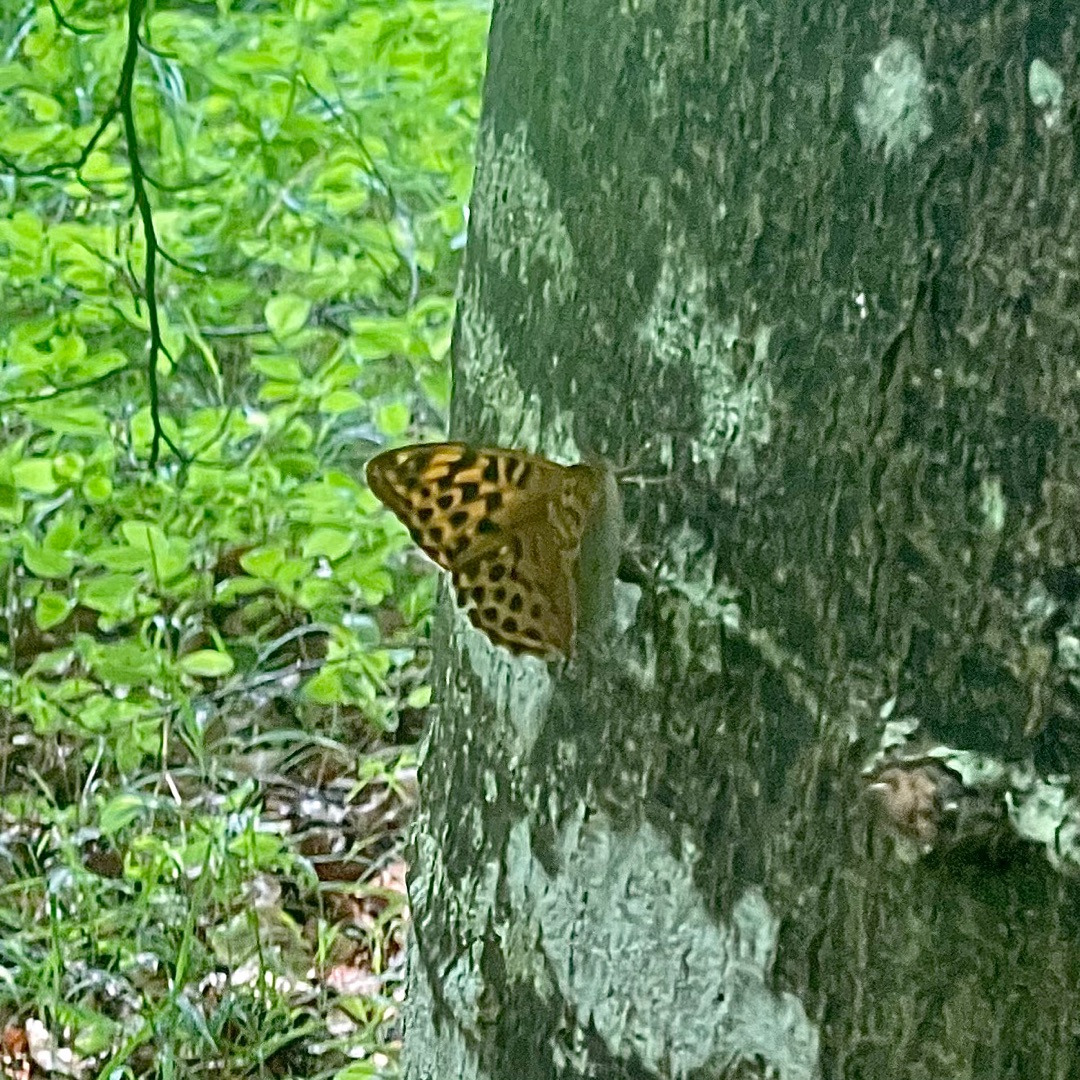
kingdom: Animalia
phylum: Arthropoda
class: Insecta
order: Lepidoptera
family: Nymphalidae
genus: Argynnis
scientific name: Argynnis paphia
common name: Kejserkåbe
